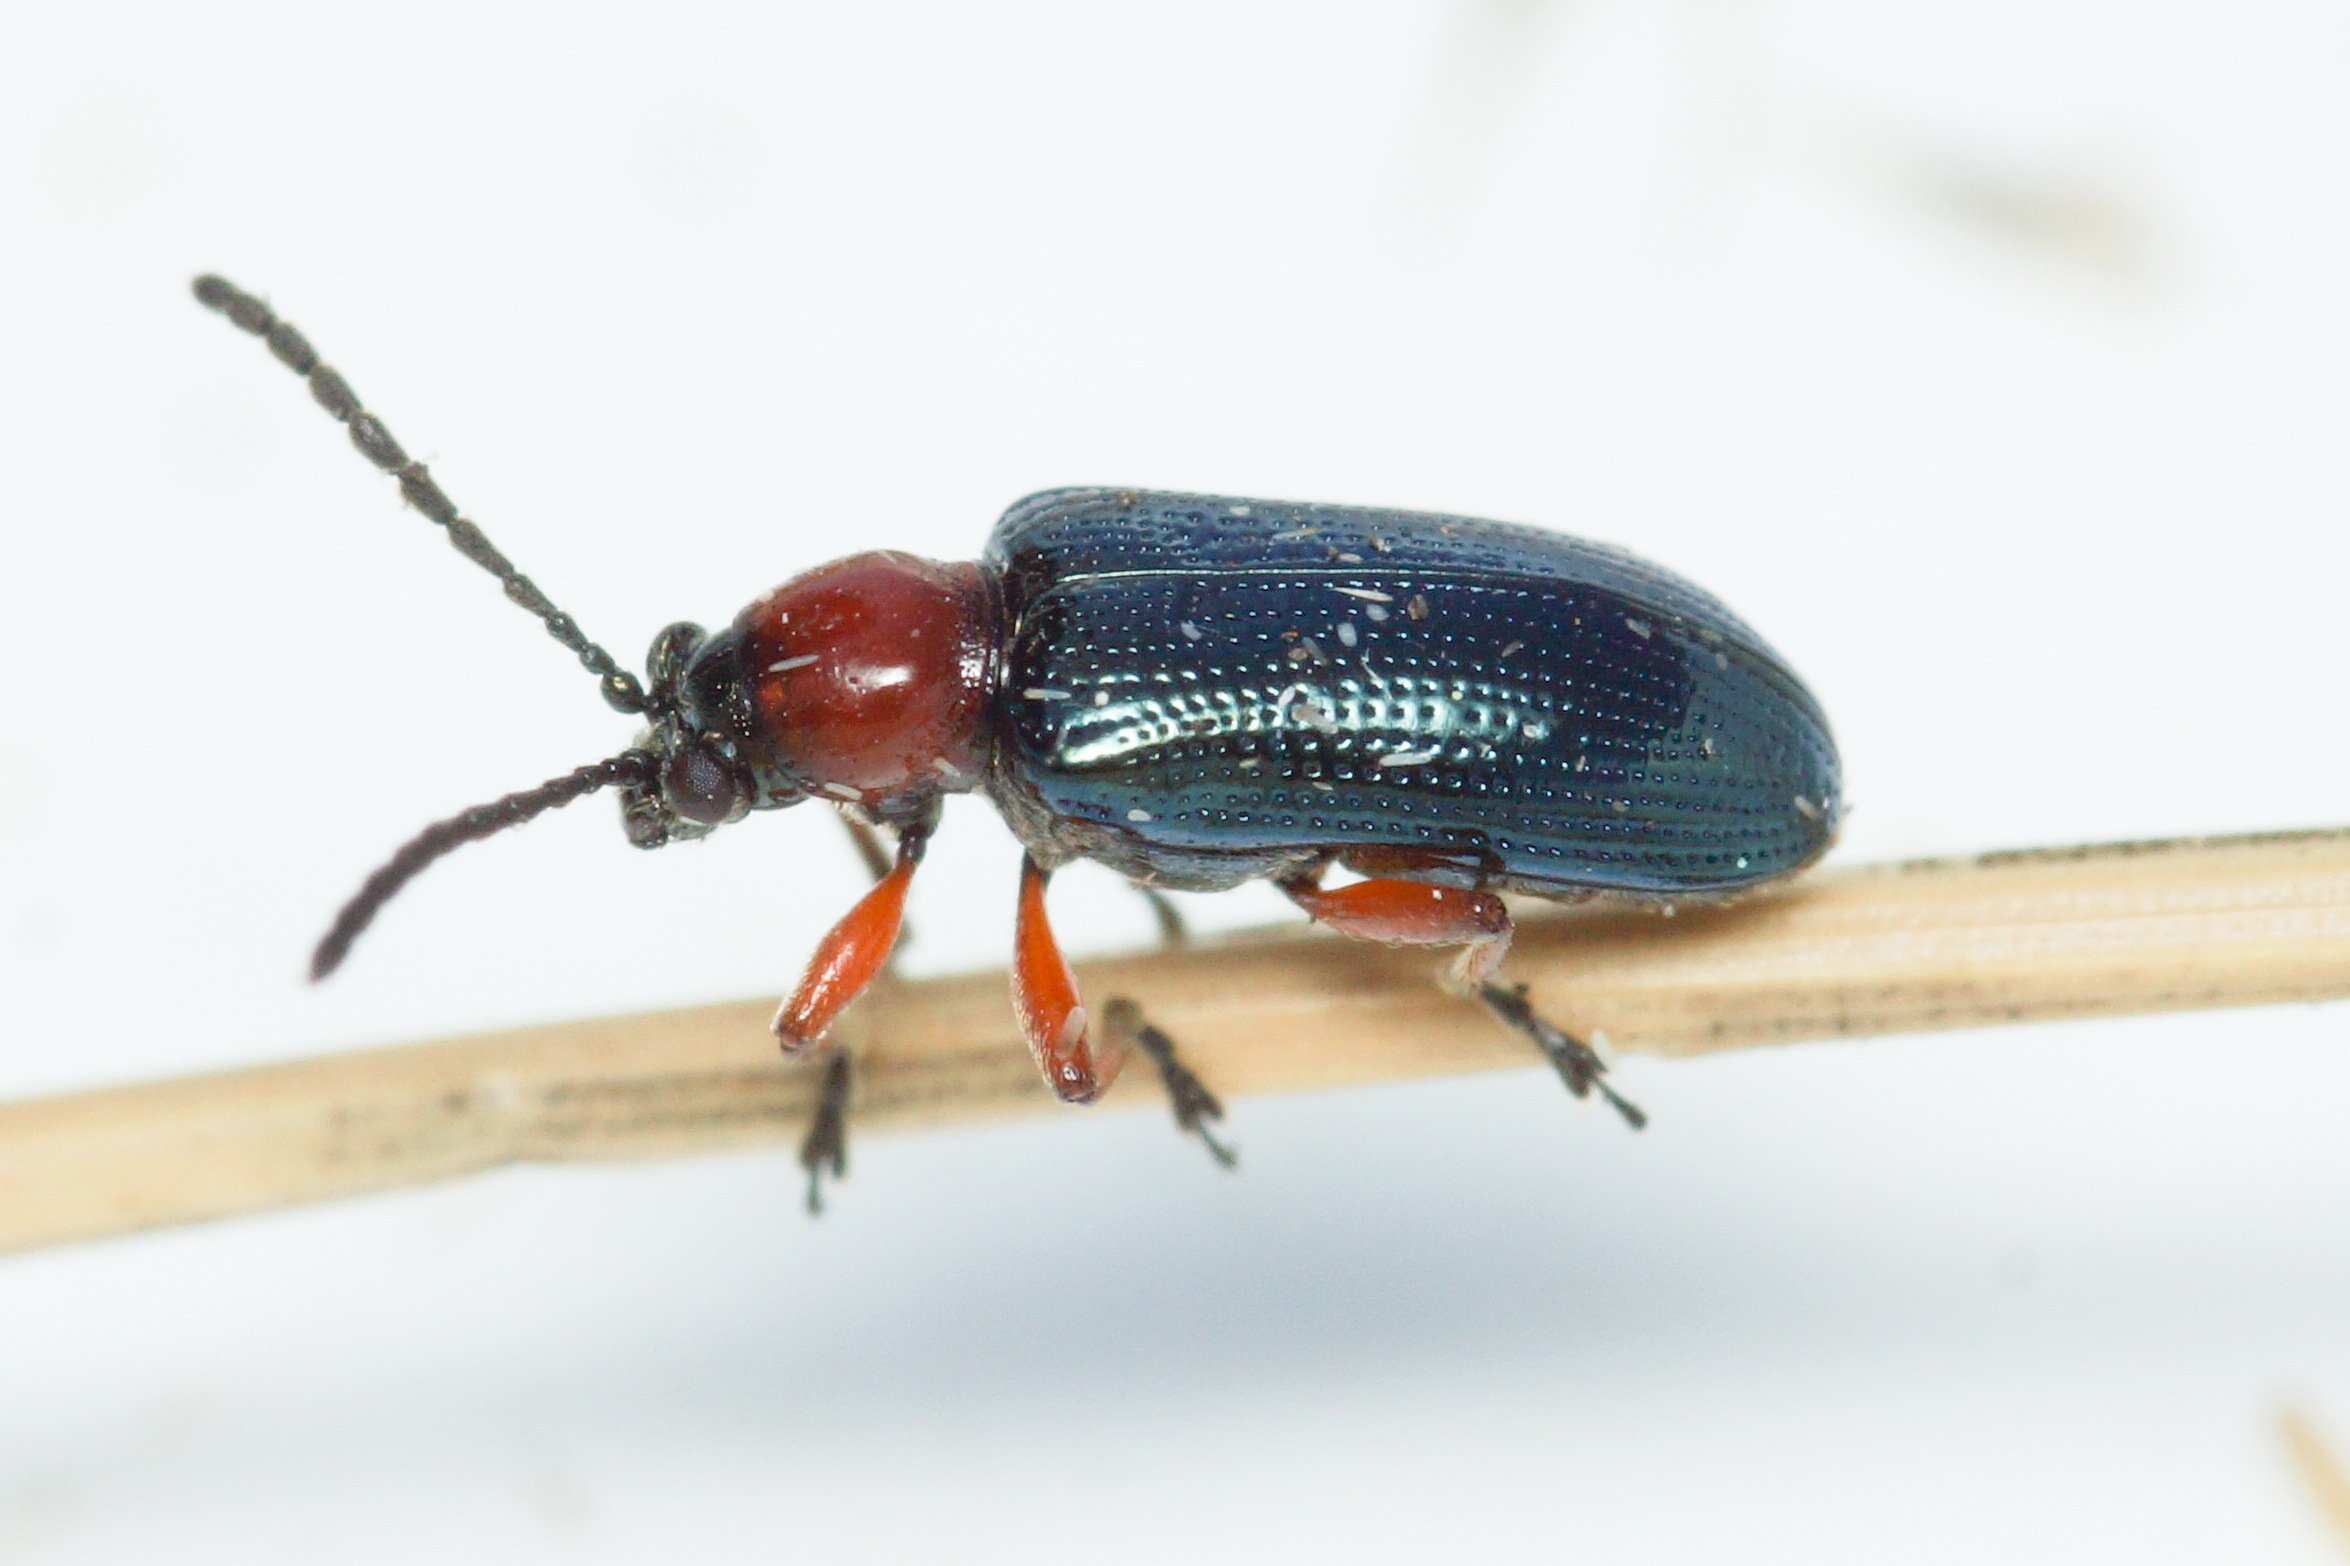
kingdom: Animalia
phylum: Arthropoda
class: Insecta
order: Coleoptera
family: Chrysomelidae
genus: Oulema
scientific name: Oulema
